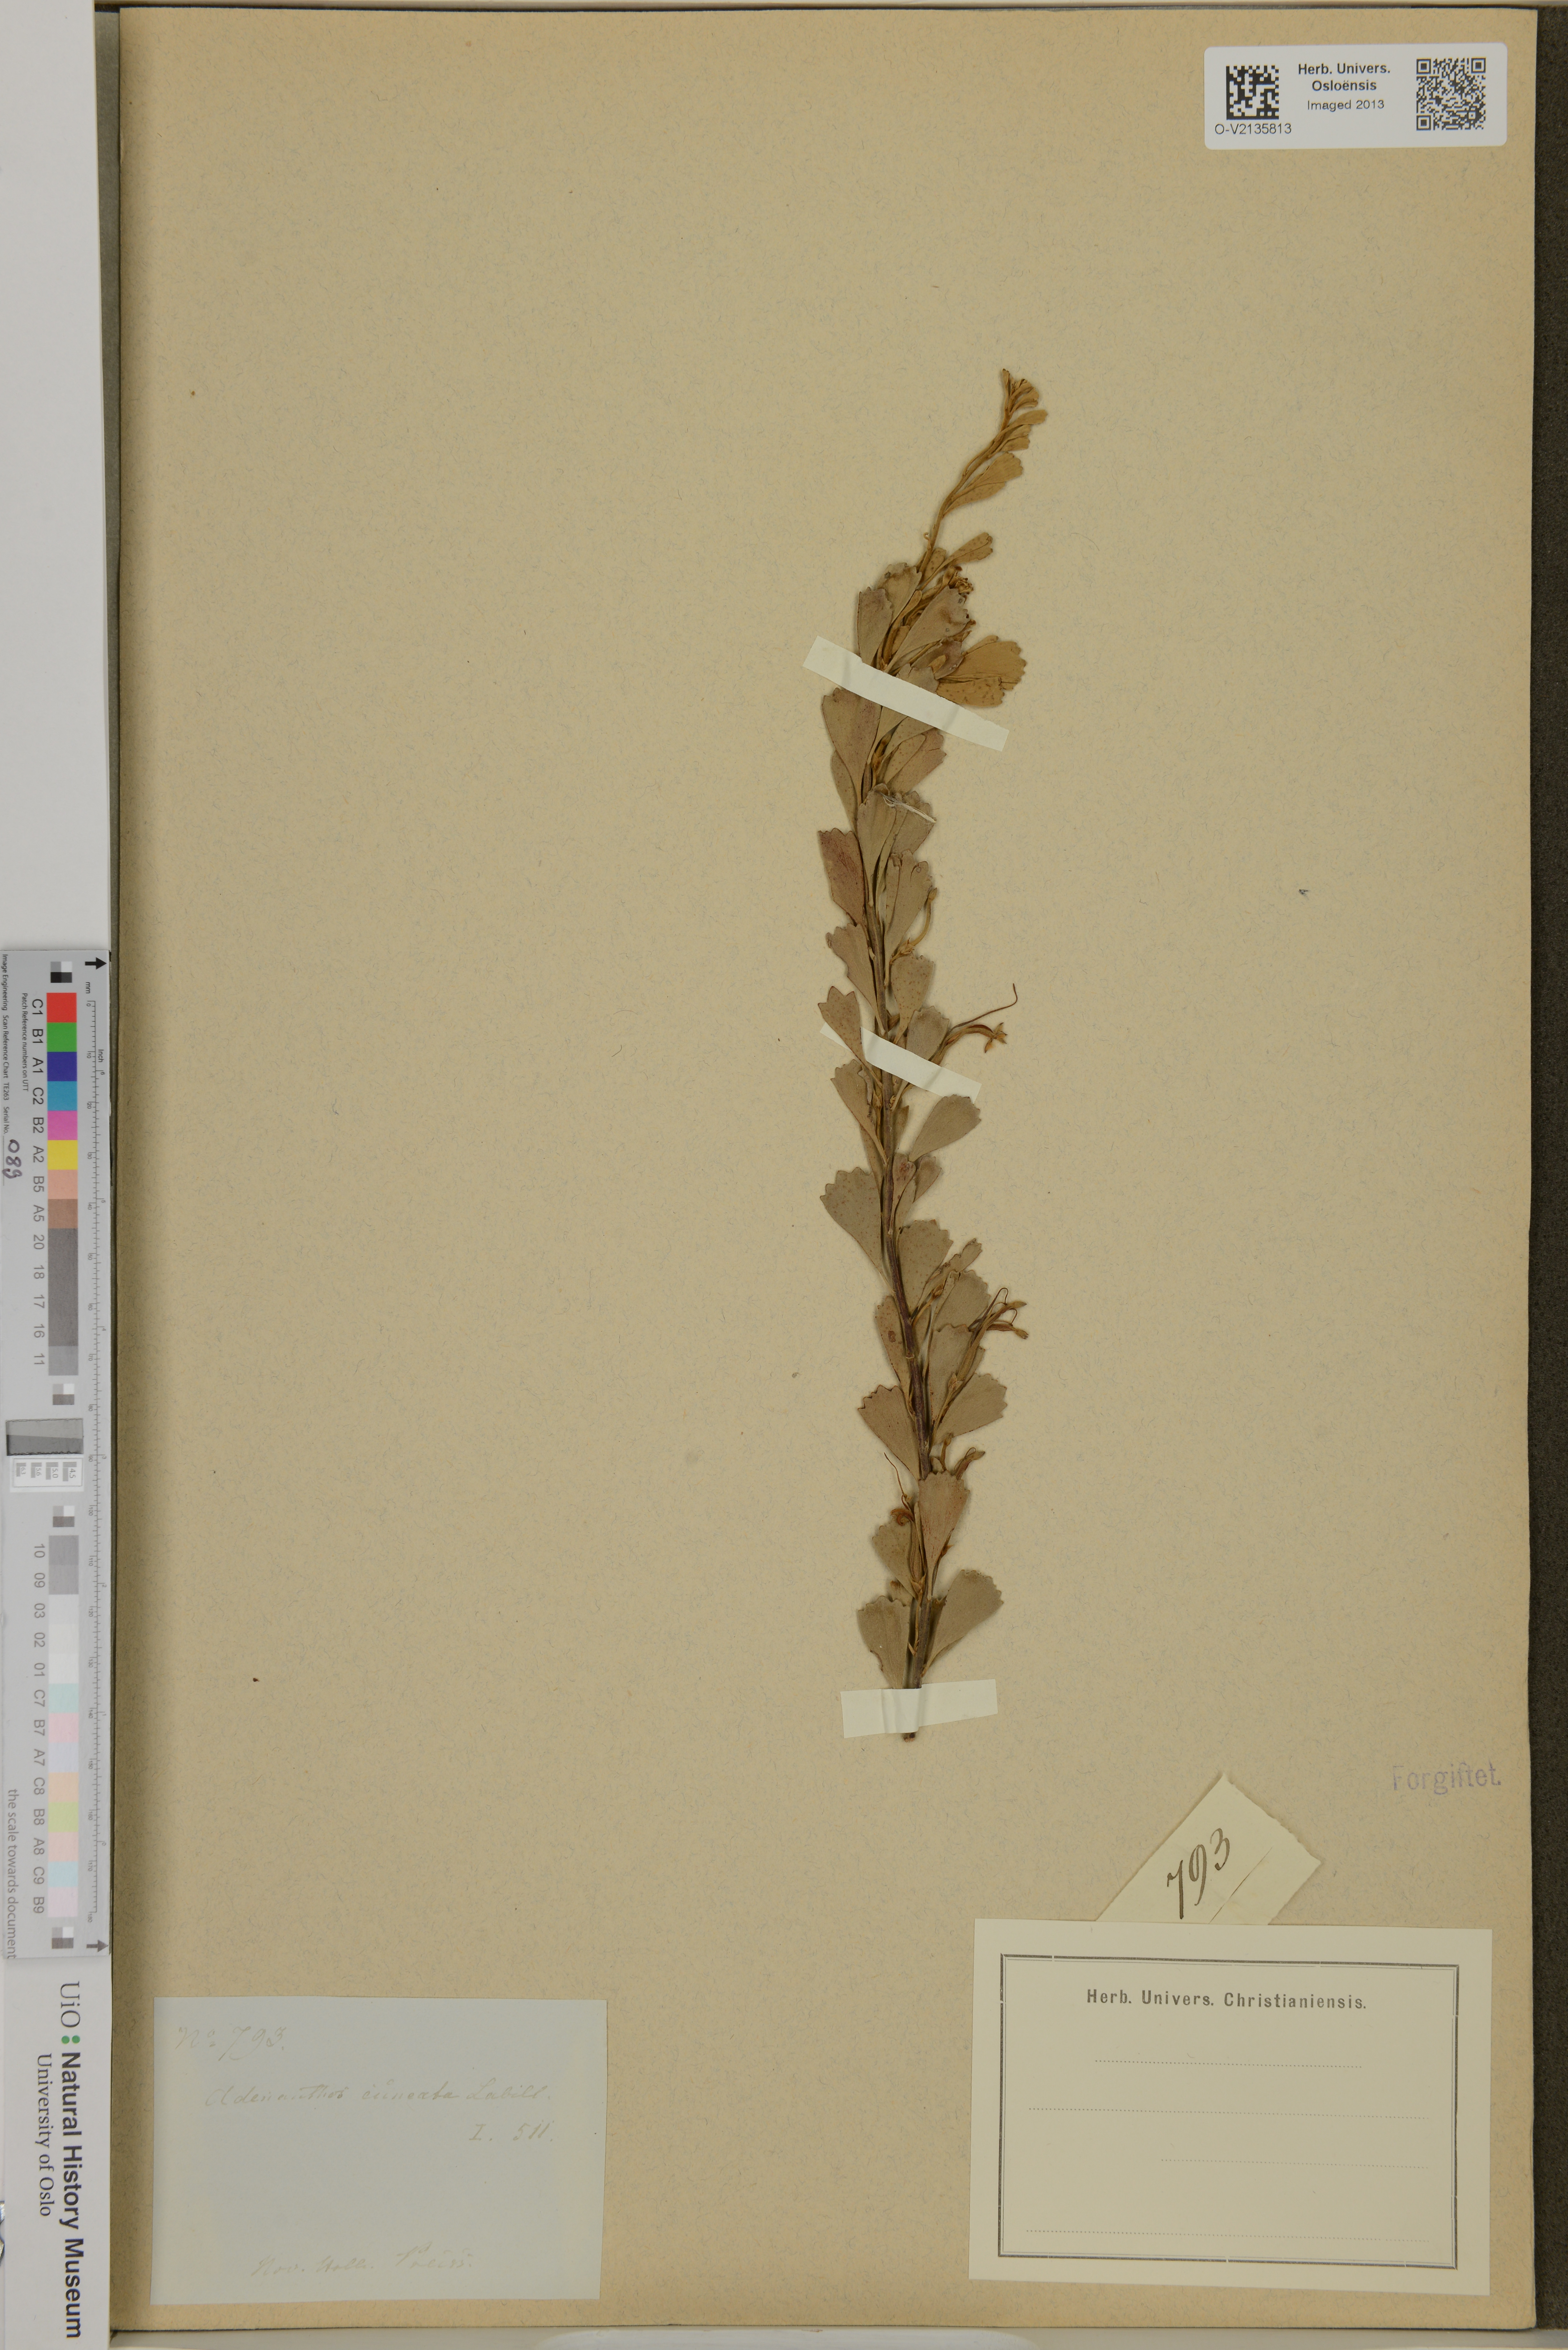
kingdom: Plantae
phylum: Tracheophyta
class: Magnoliopsida
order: Proteales
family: Proteaceae
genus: Adenanthos
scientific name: Adenanthos cuneatus
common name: Flamebush
